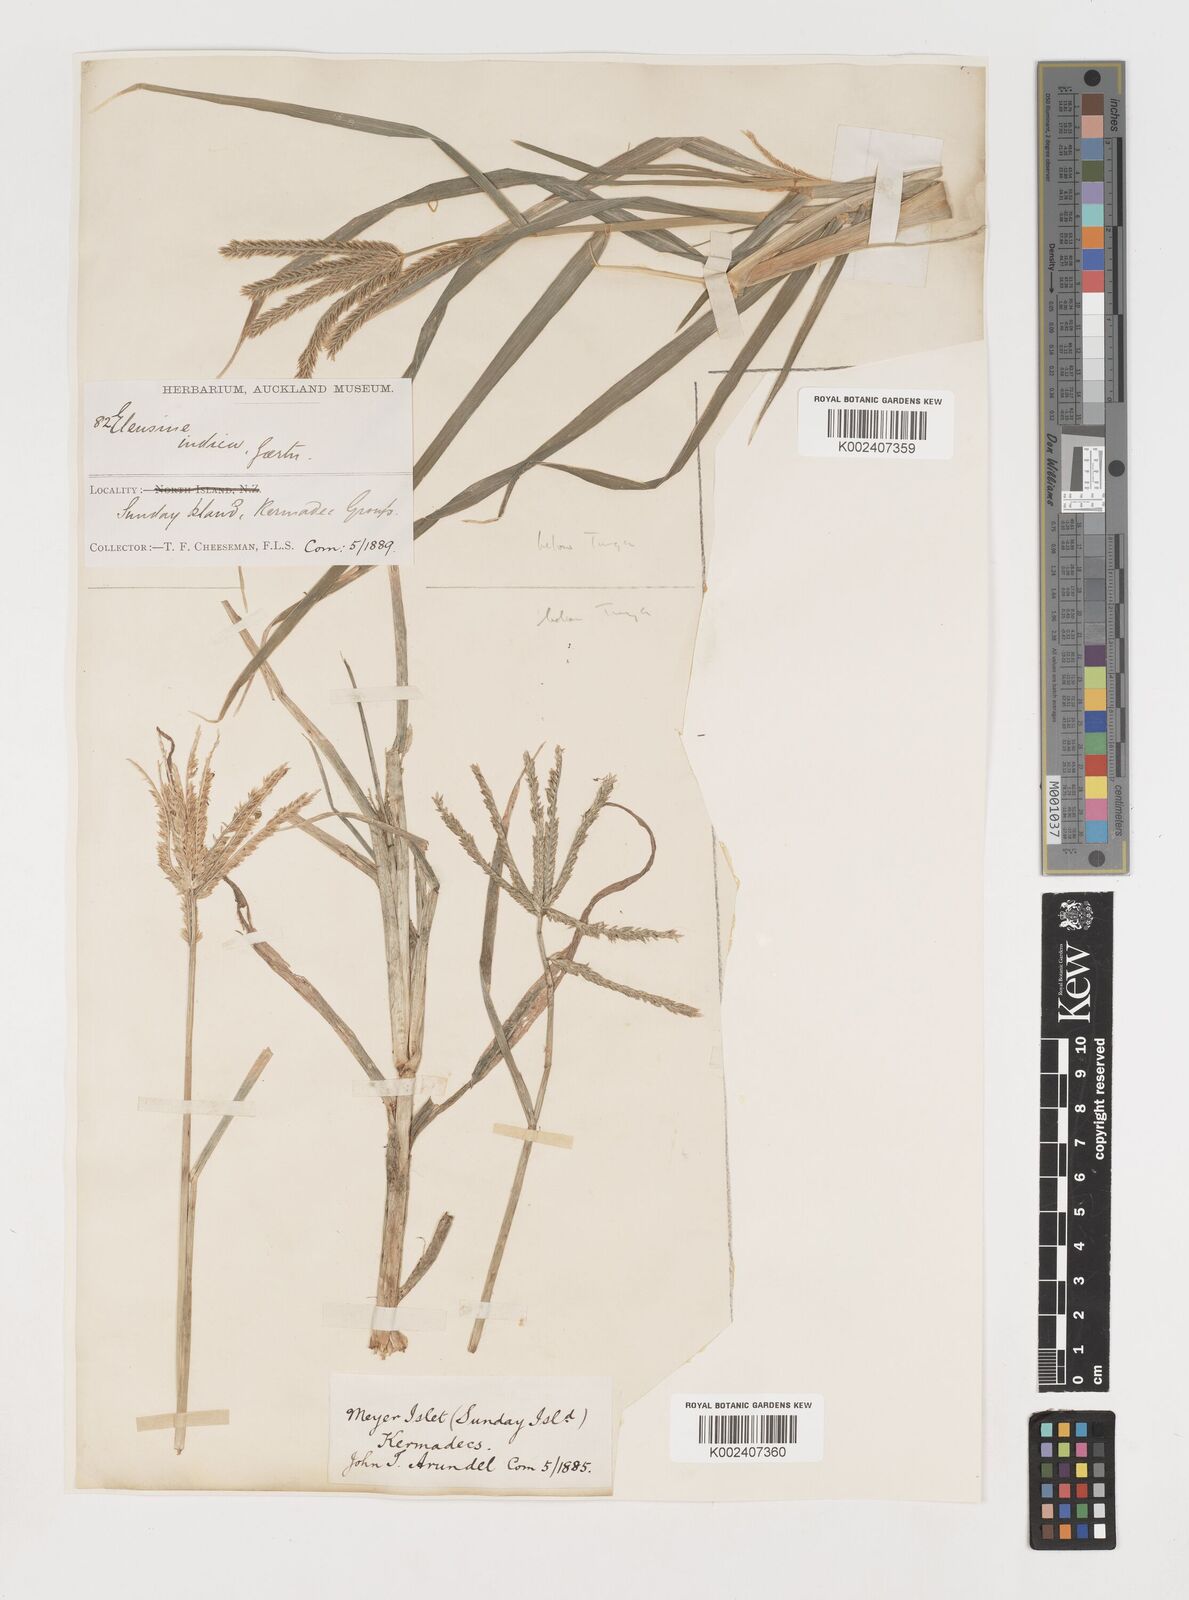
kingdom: Plantae
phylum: Tracheophyta
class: Liliopsida
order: Poales
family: Poaceae
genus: Eleusine
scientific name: Eleusine indica
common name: Yard-grass
